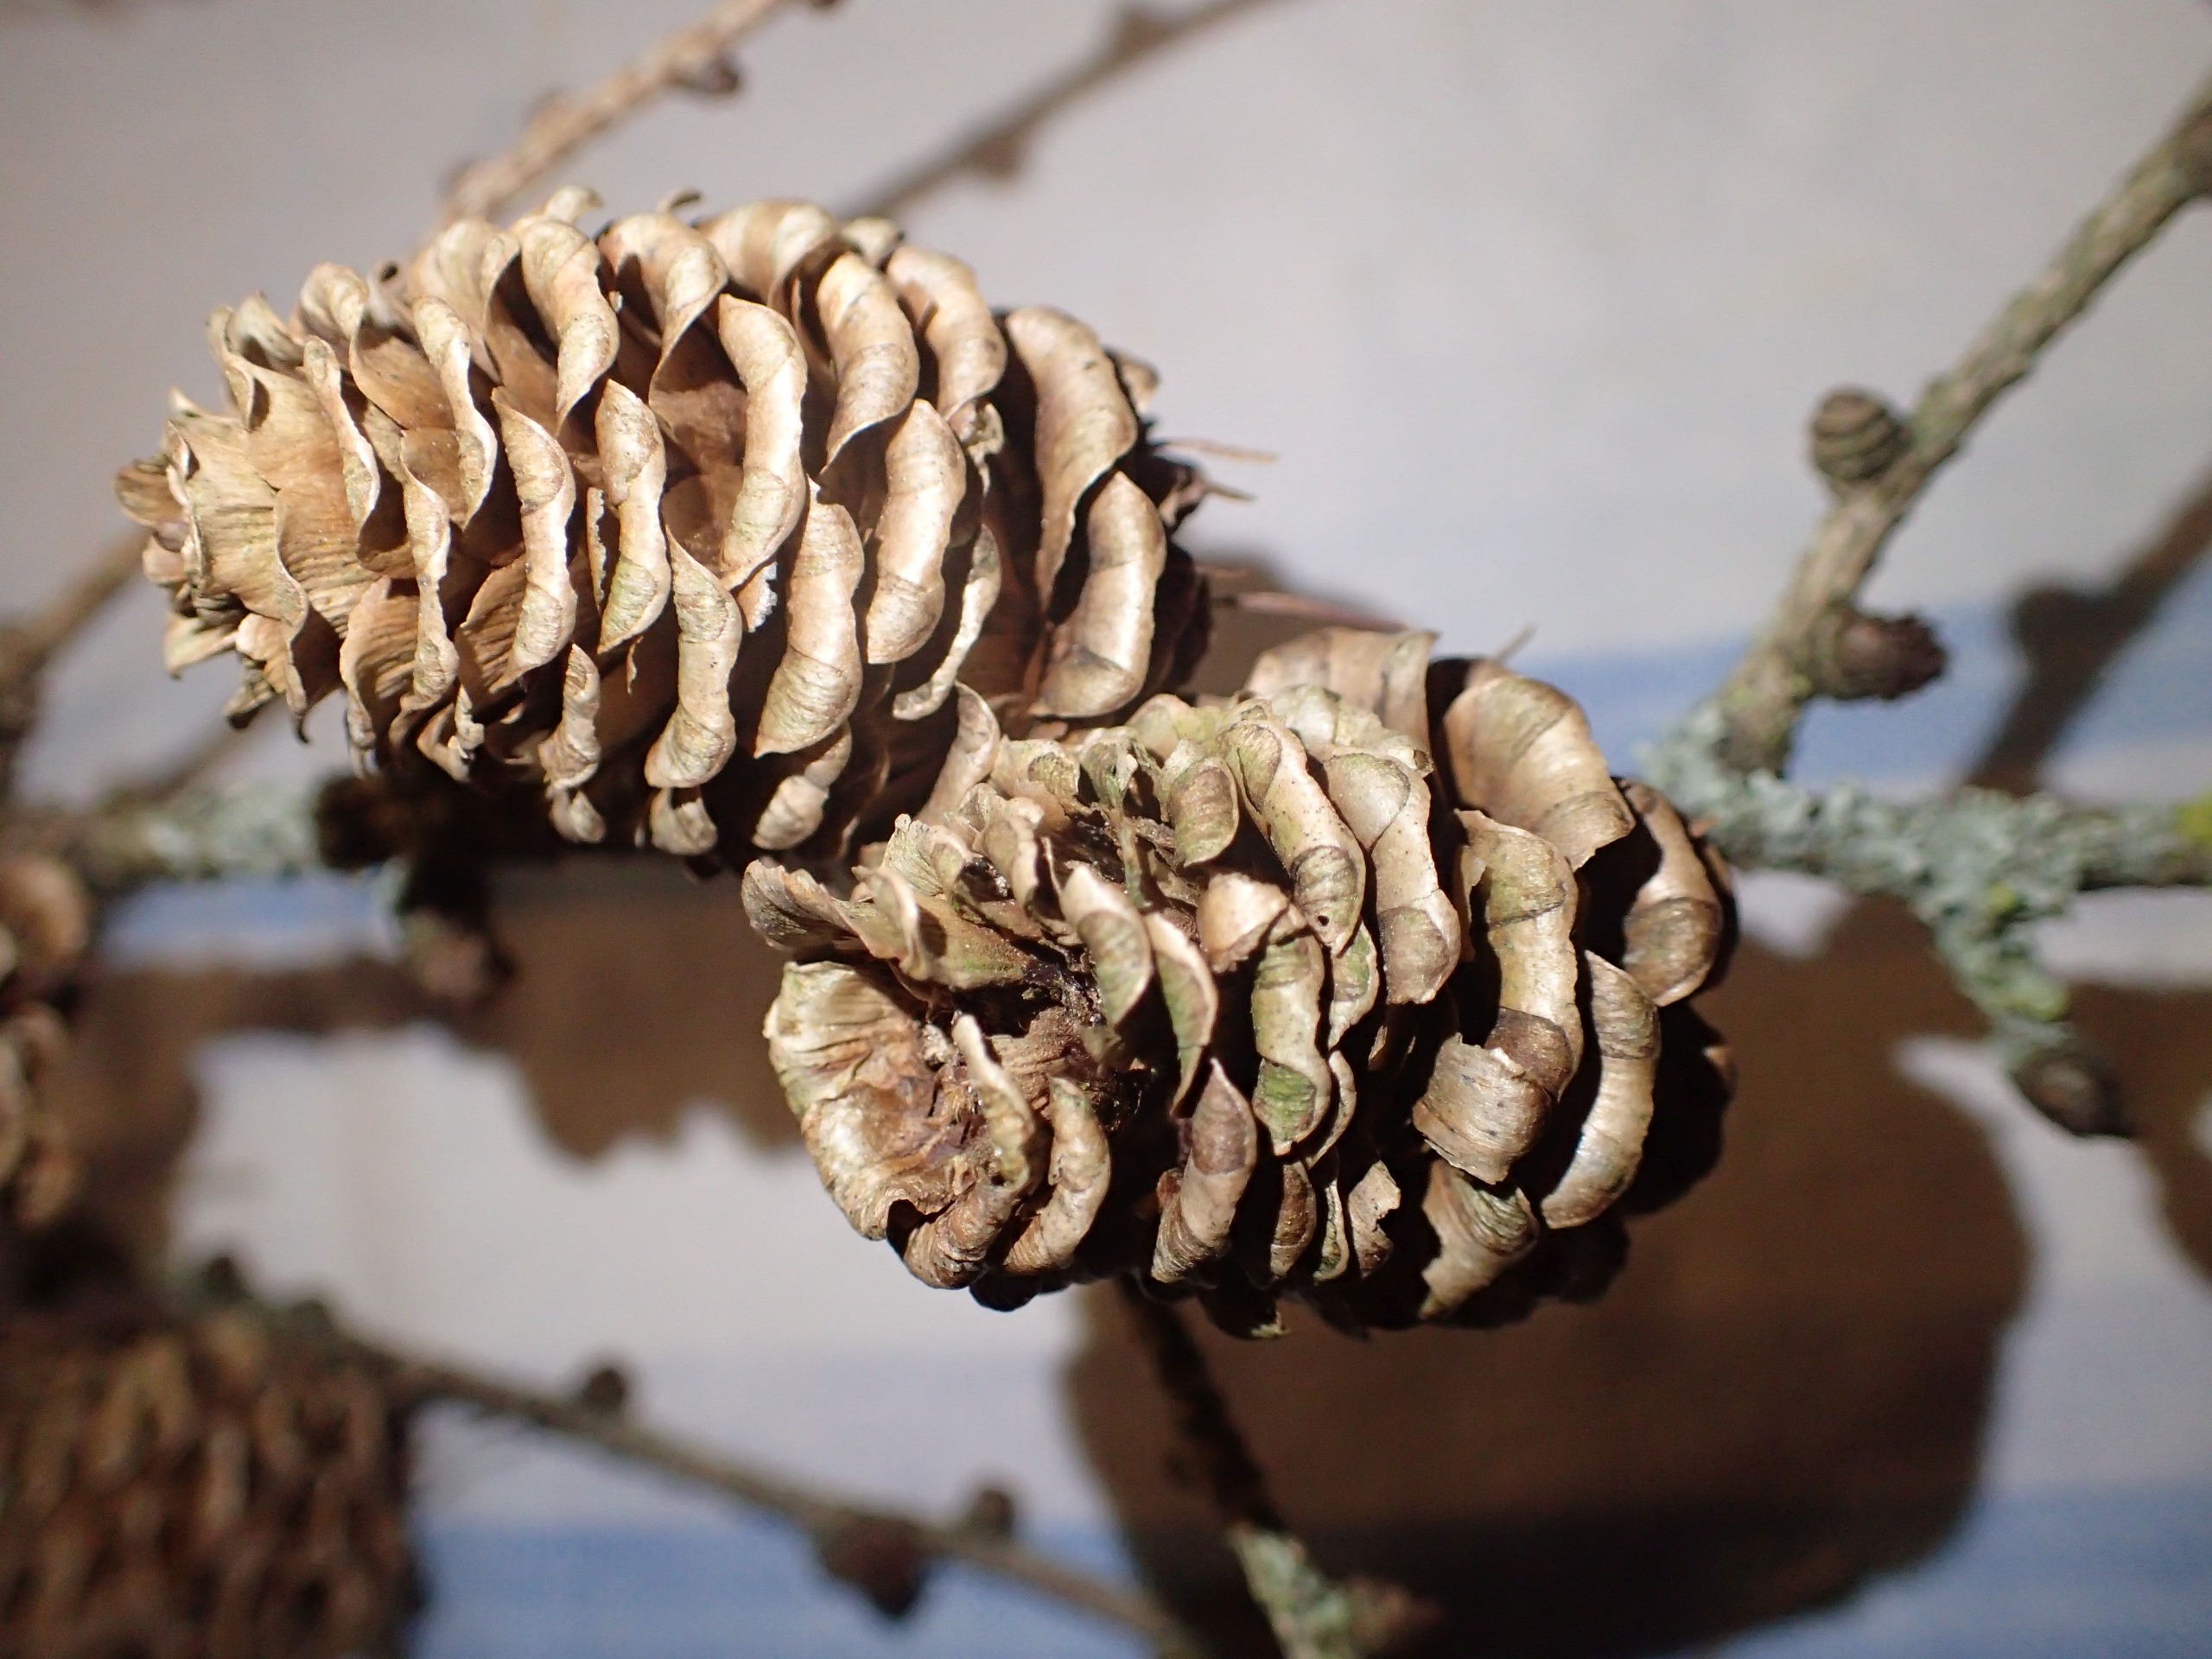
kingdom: Plantae
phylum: Tracheophyta
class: Pinopsida
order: Pinales
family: Pinaceae
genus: Larix
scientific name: Larix kaempferi
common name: Japansk lærk
